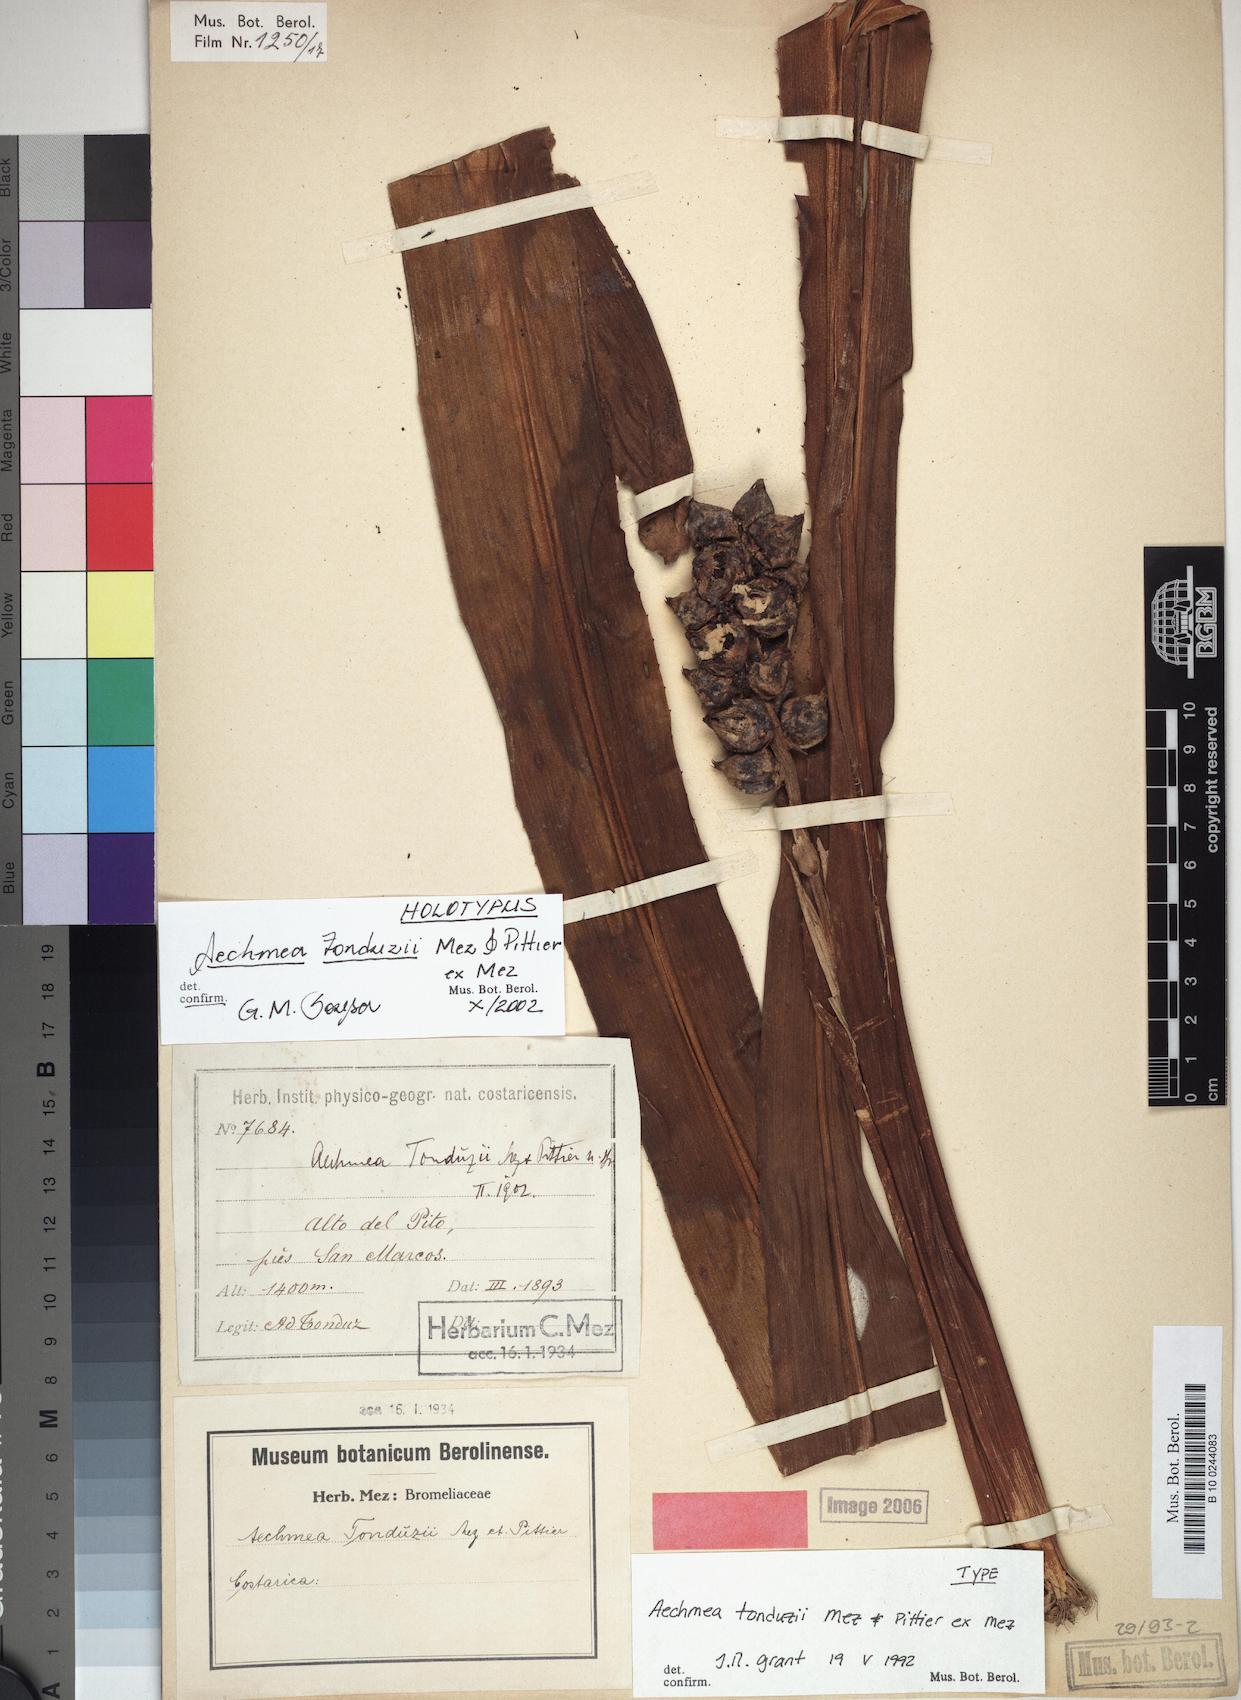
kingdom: Plantae
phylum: Tracheophyta
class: Liliopsida
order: Poales
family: Bromeliaceae
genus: Ronnbergia
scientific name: Ronnbergia tonduzii
